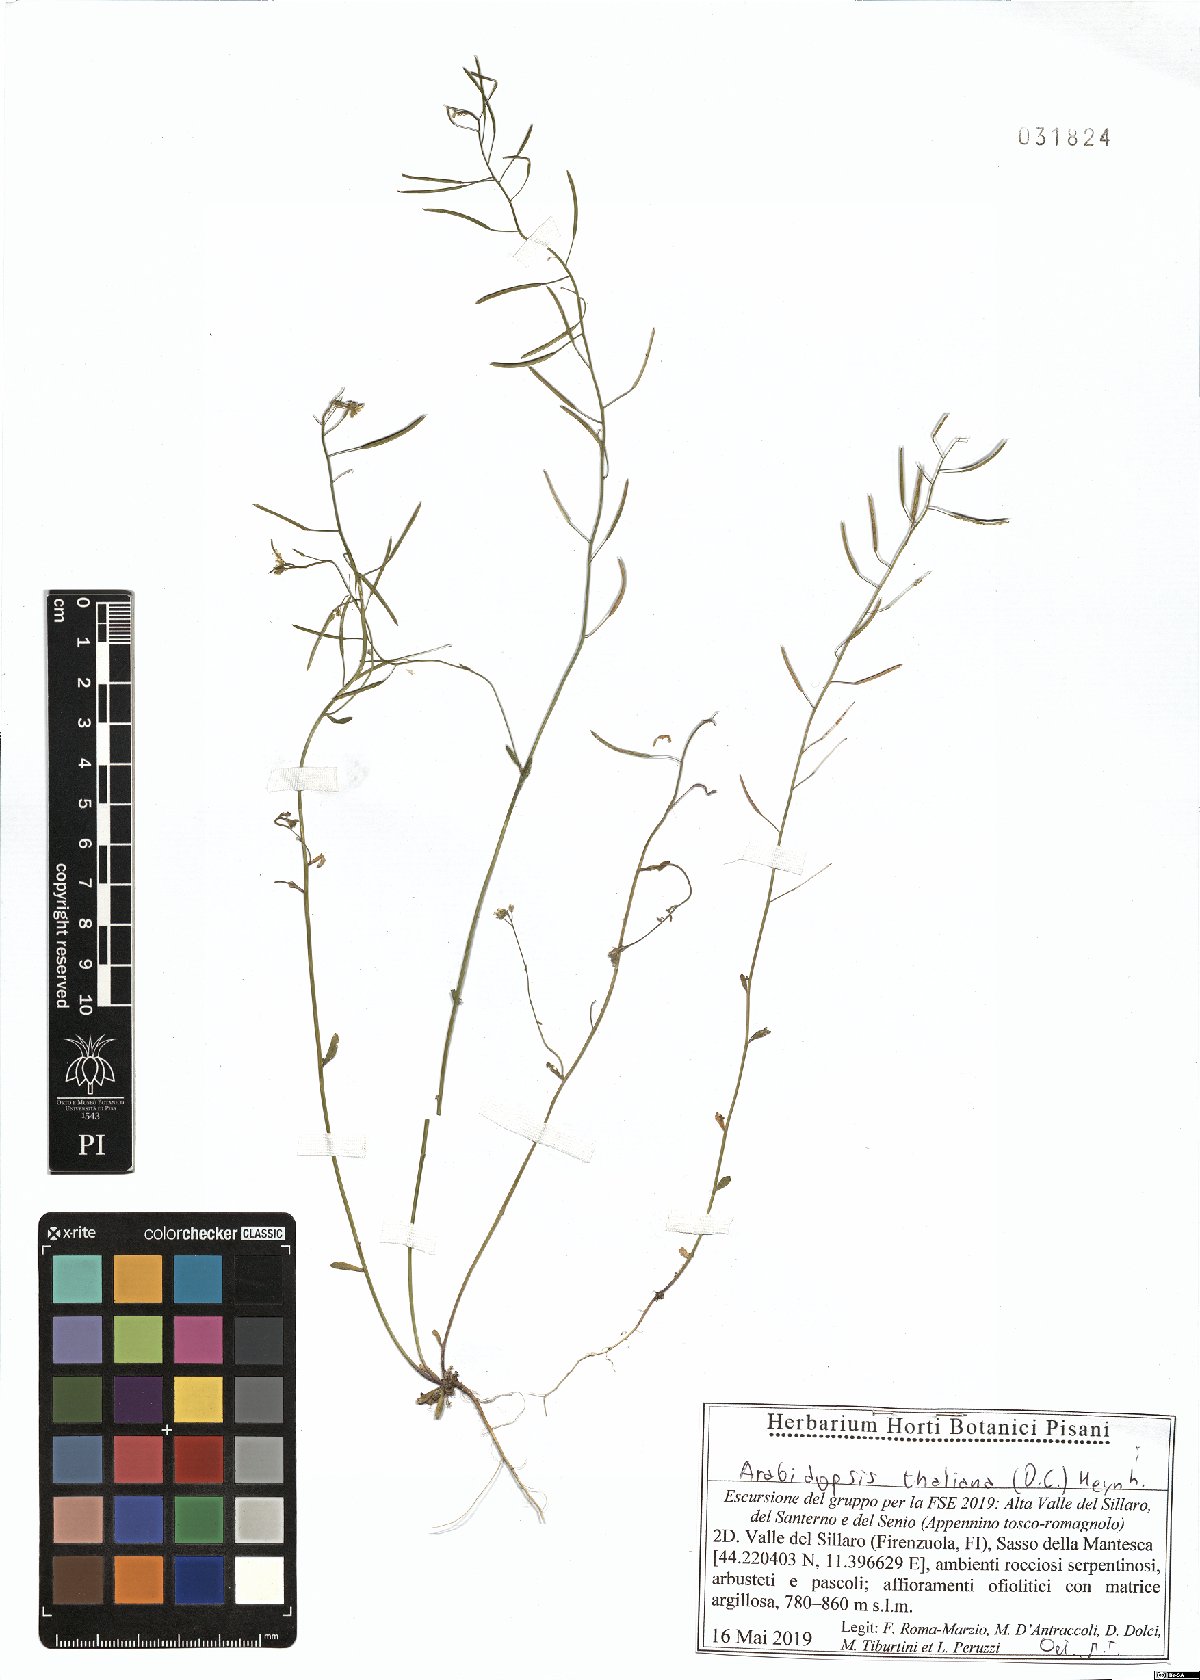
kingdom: Plantae
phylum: Tracheophyta
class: Magnoliopsida
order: Brassicales
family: Brassicaceae
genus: Arabidopsis
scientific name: Arabidopsis thaliana
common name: Thale cress
